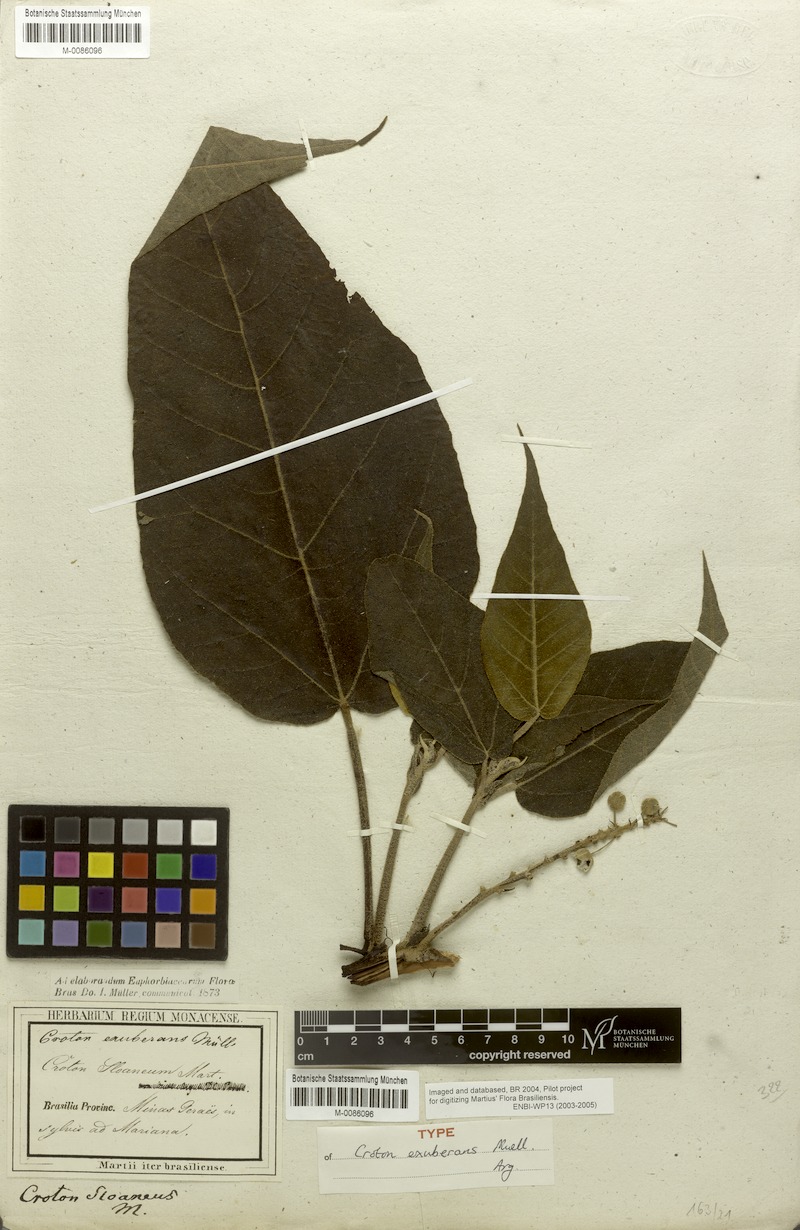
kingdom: Plantae
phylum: Tracheophyta
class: Magnoliopsida
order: Malpighiales
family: Euphorbiaceae
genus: Croton
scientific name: Croton exuberans
